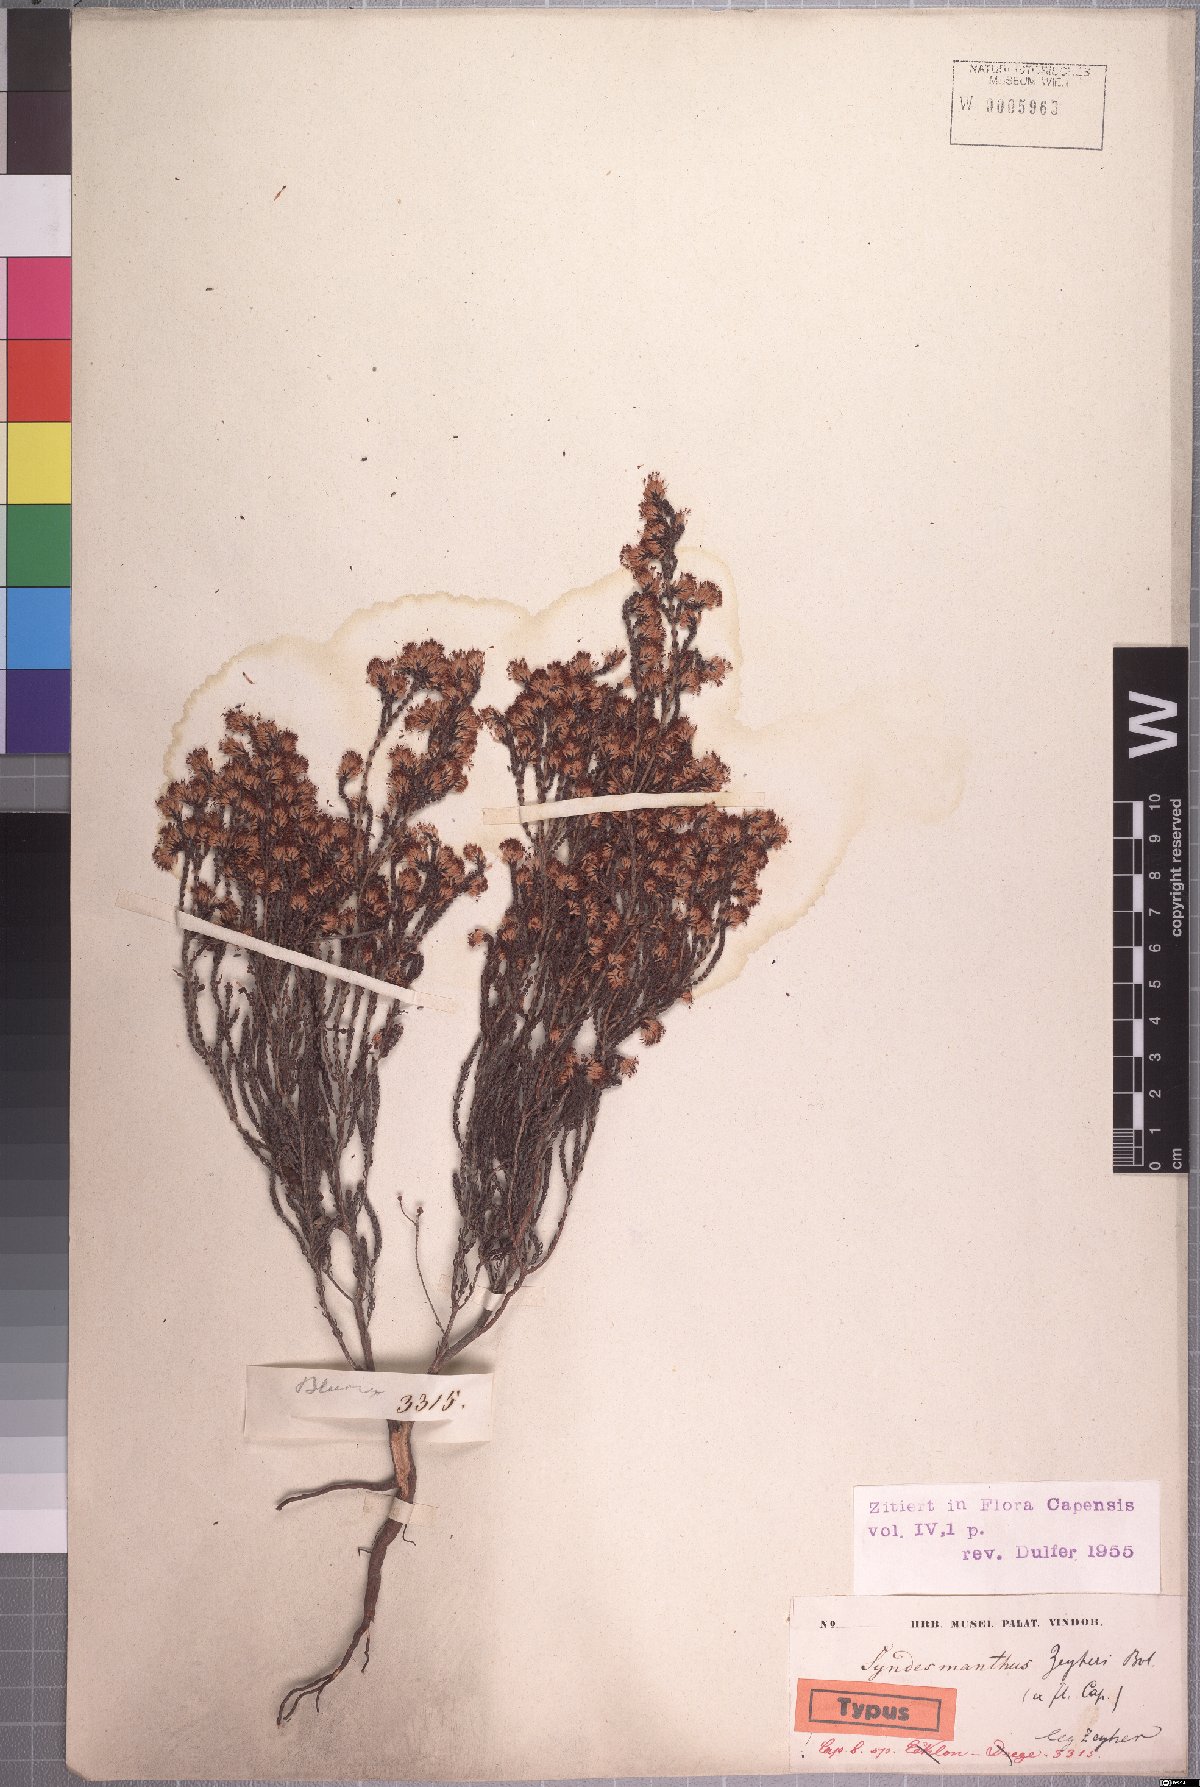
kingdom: Plantae
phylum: Tracheophyta
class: Magnoliopsida
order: Ericales
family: Ericaceae
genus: Erica
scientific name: Erica globiceps
